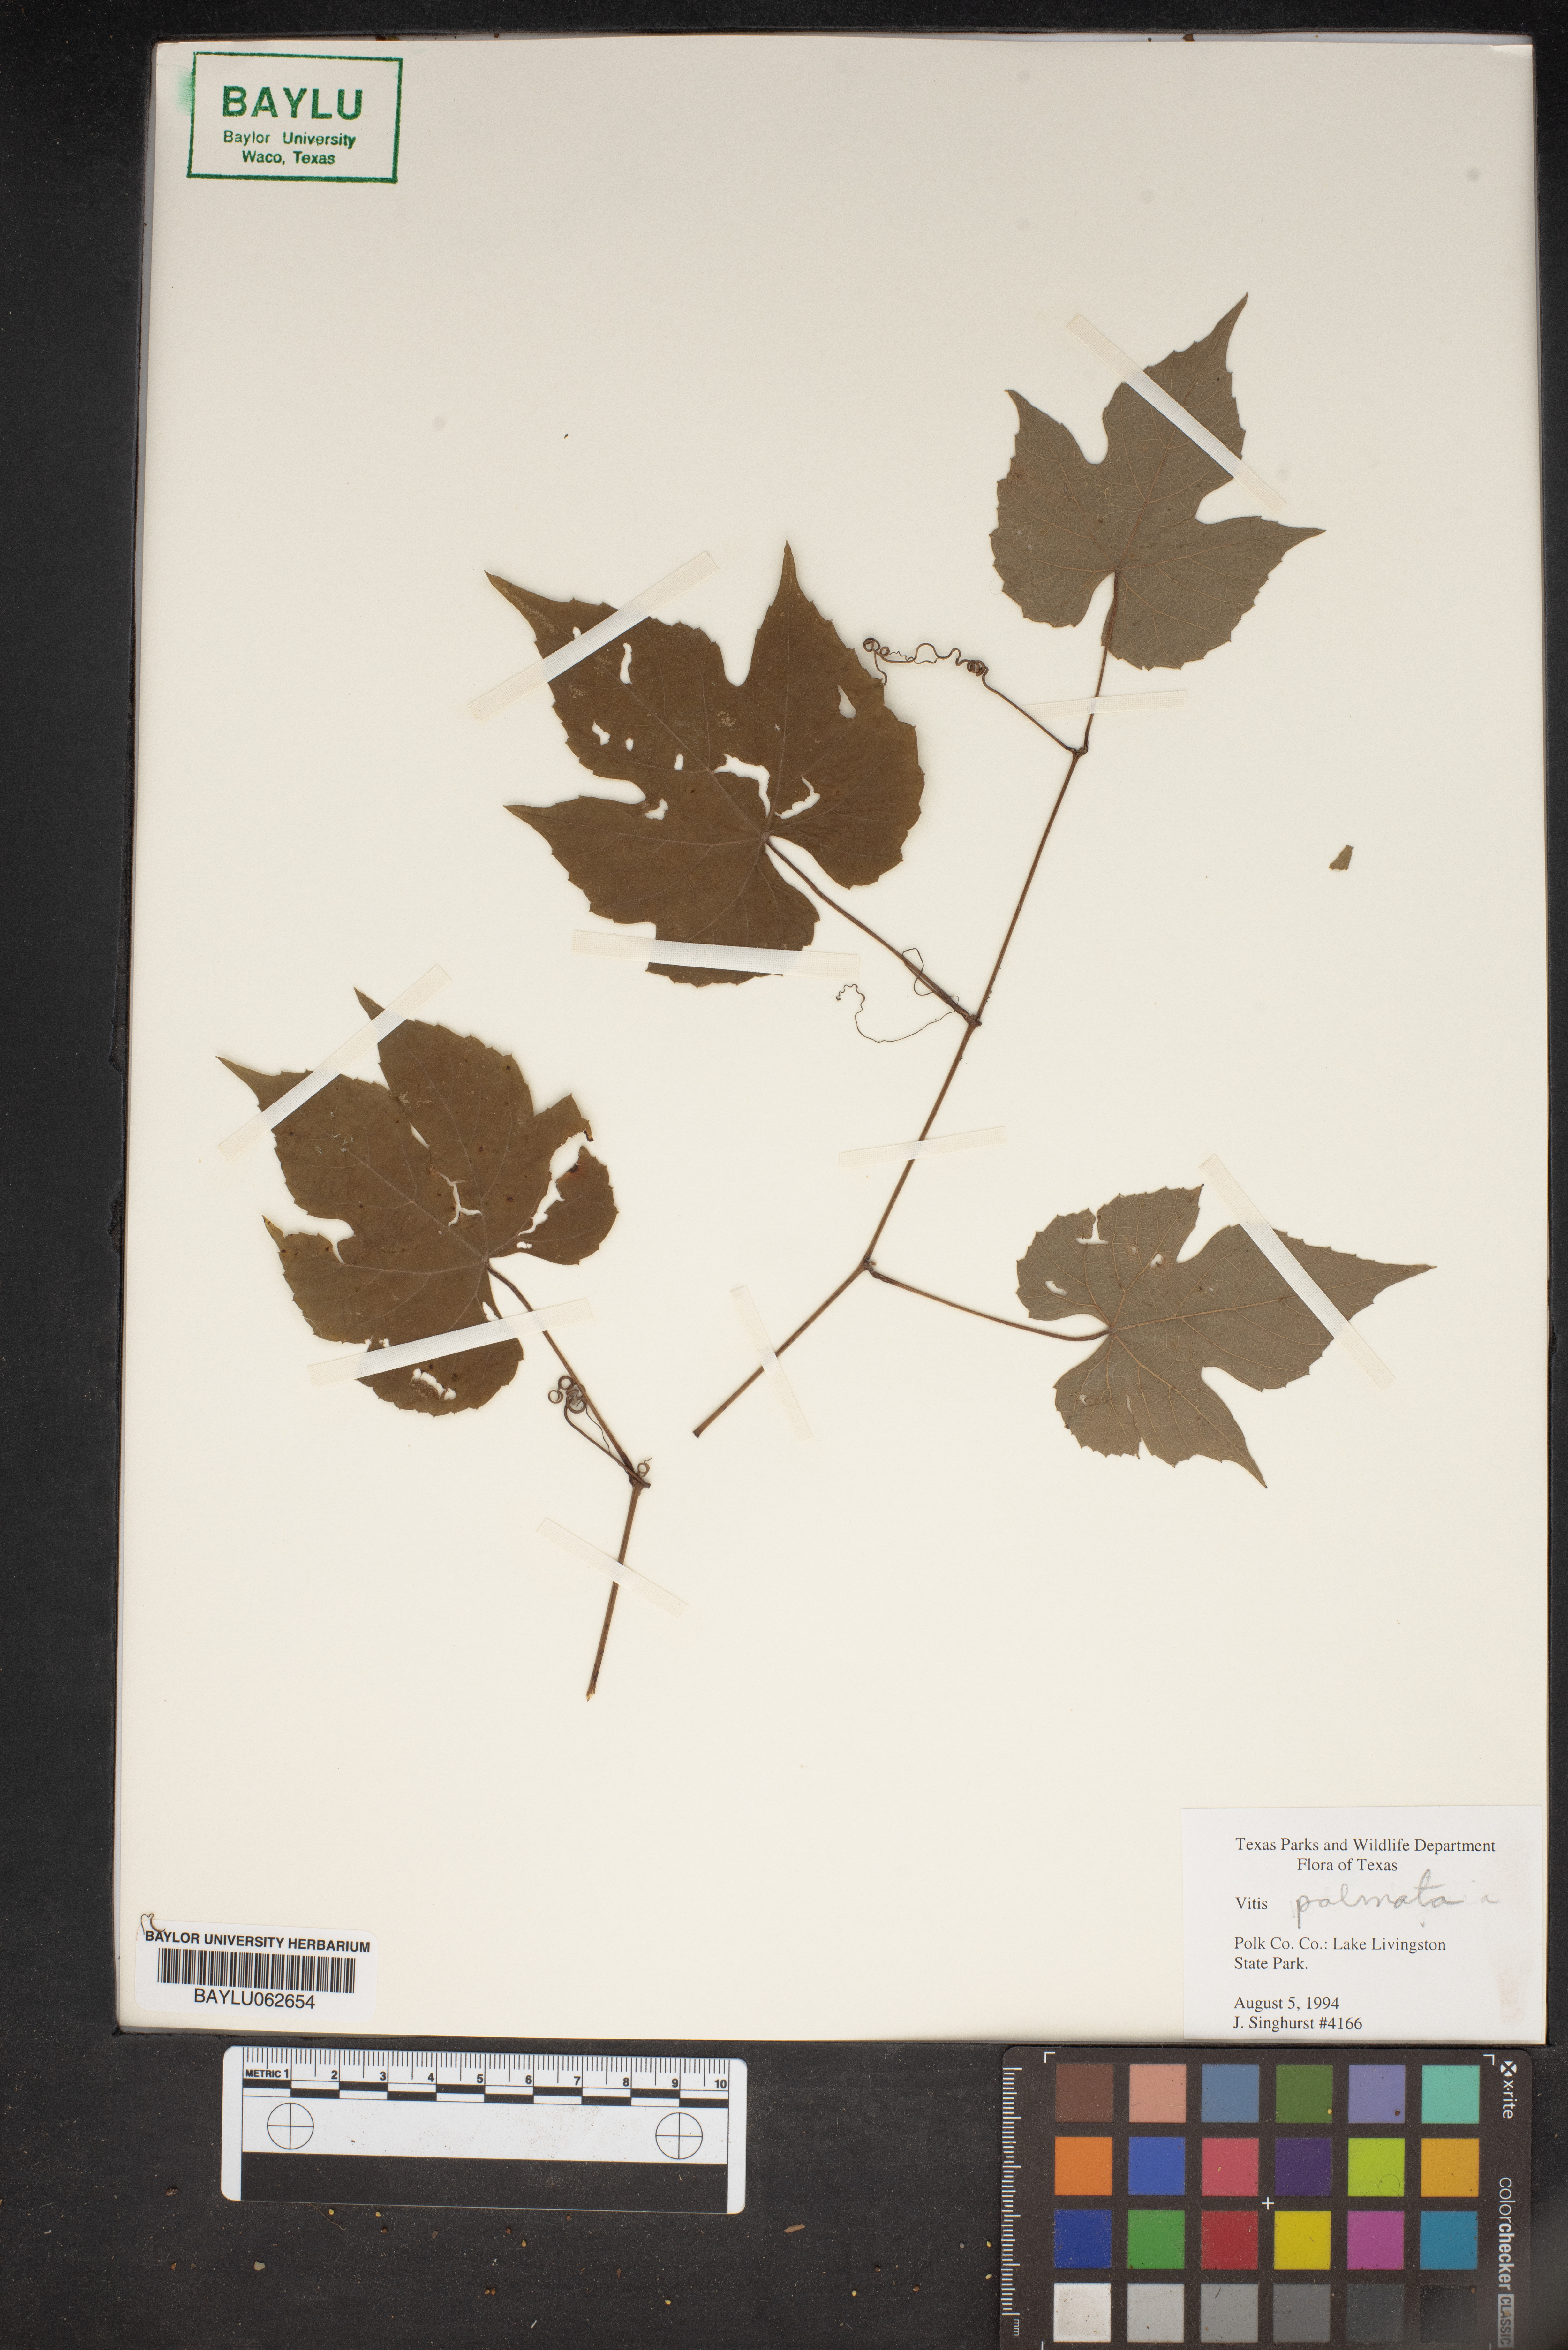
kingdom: Plantae
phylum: Tracheophyta
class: Magnoliopsida
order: Vitales
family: Vitaceae
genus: Vitis
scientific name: Vitis palmata
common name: Catbird grape
